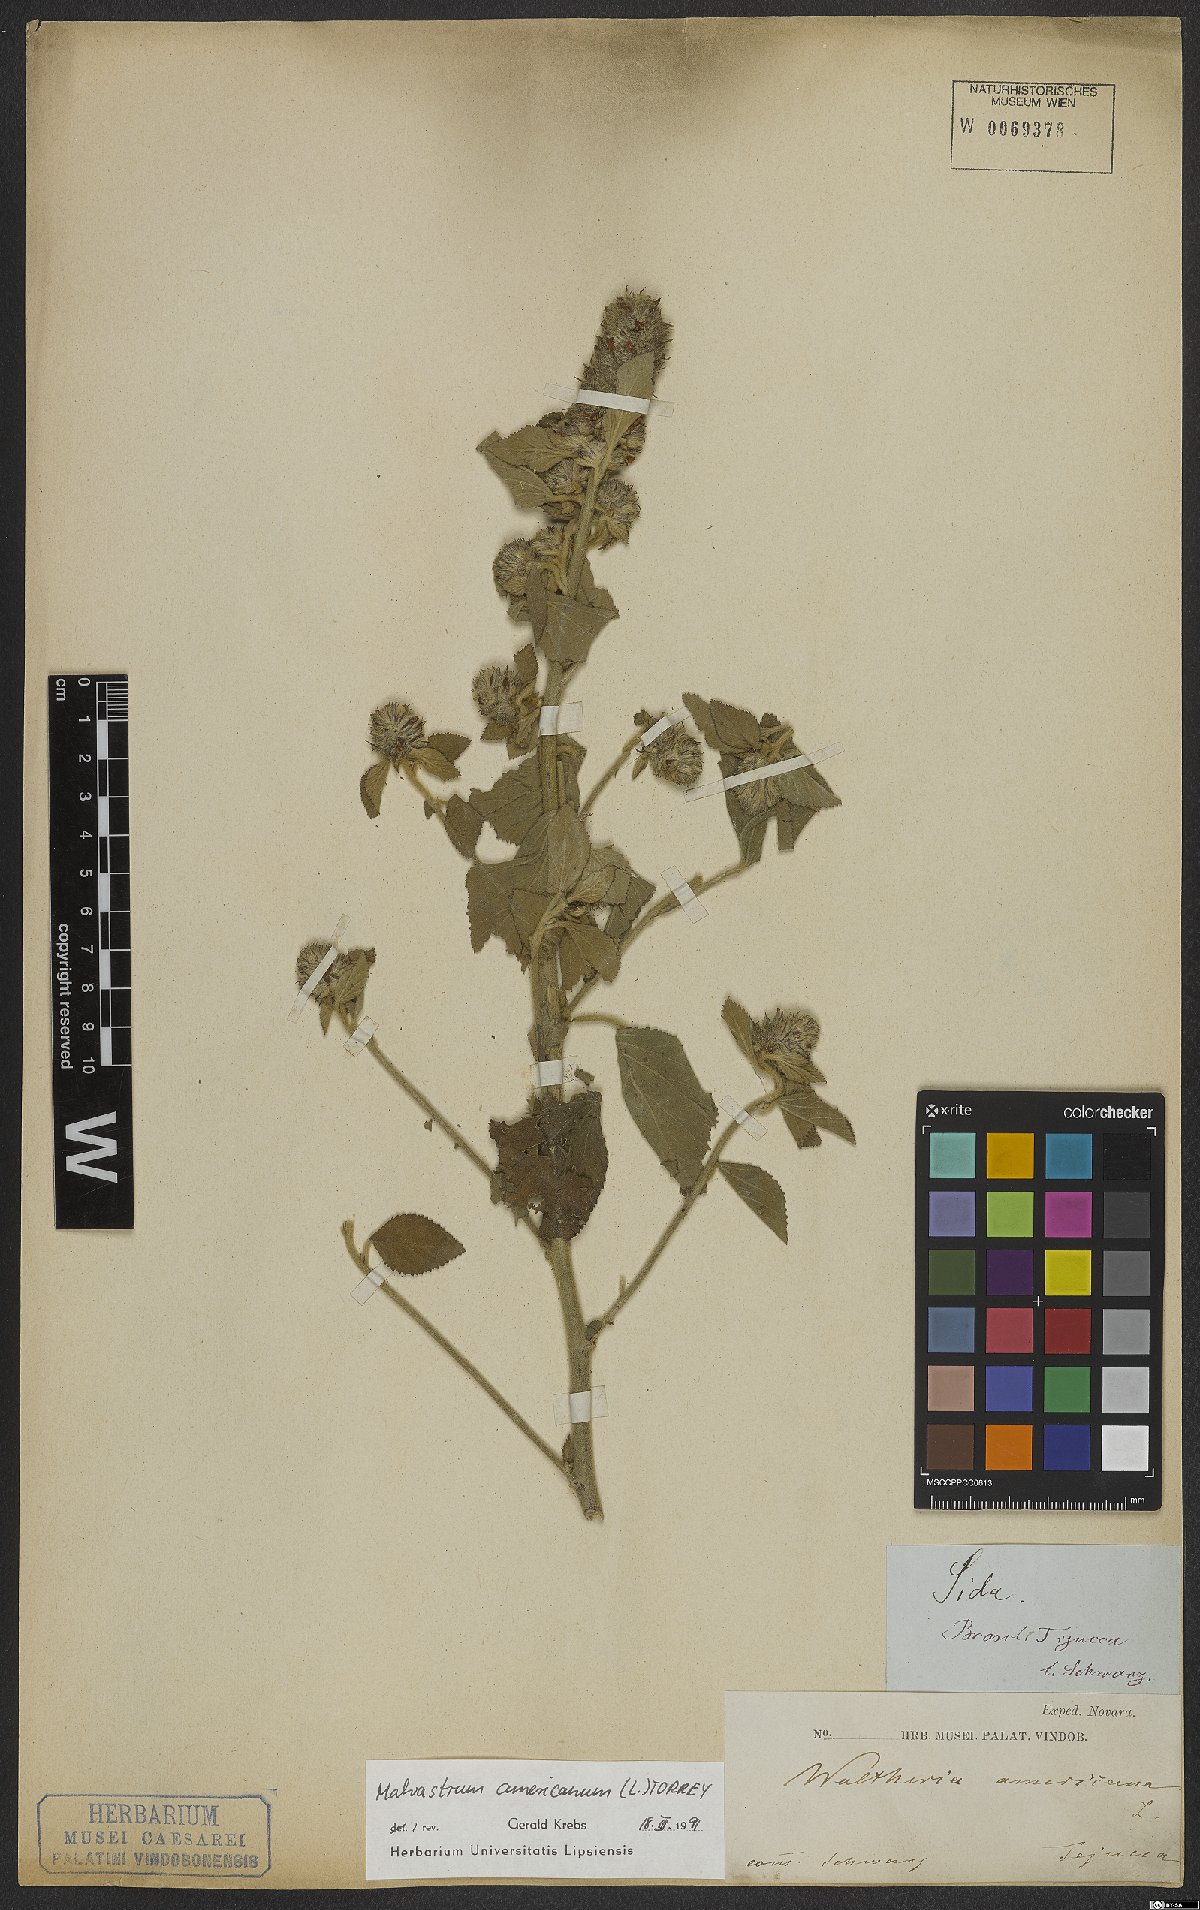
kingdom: Plantae
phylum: Tracheophyta
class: Magnoliopsida
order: Malvales
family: Malvaceae
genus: Malvastrum
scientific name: Malvastrum americanum
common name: Spiked malvastrum
